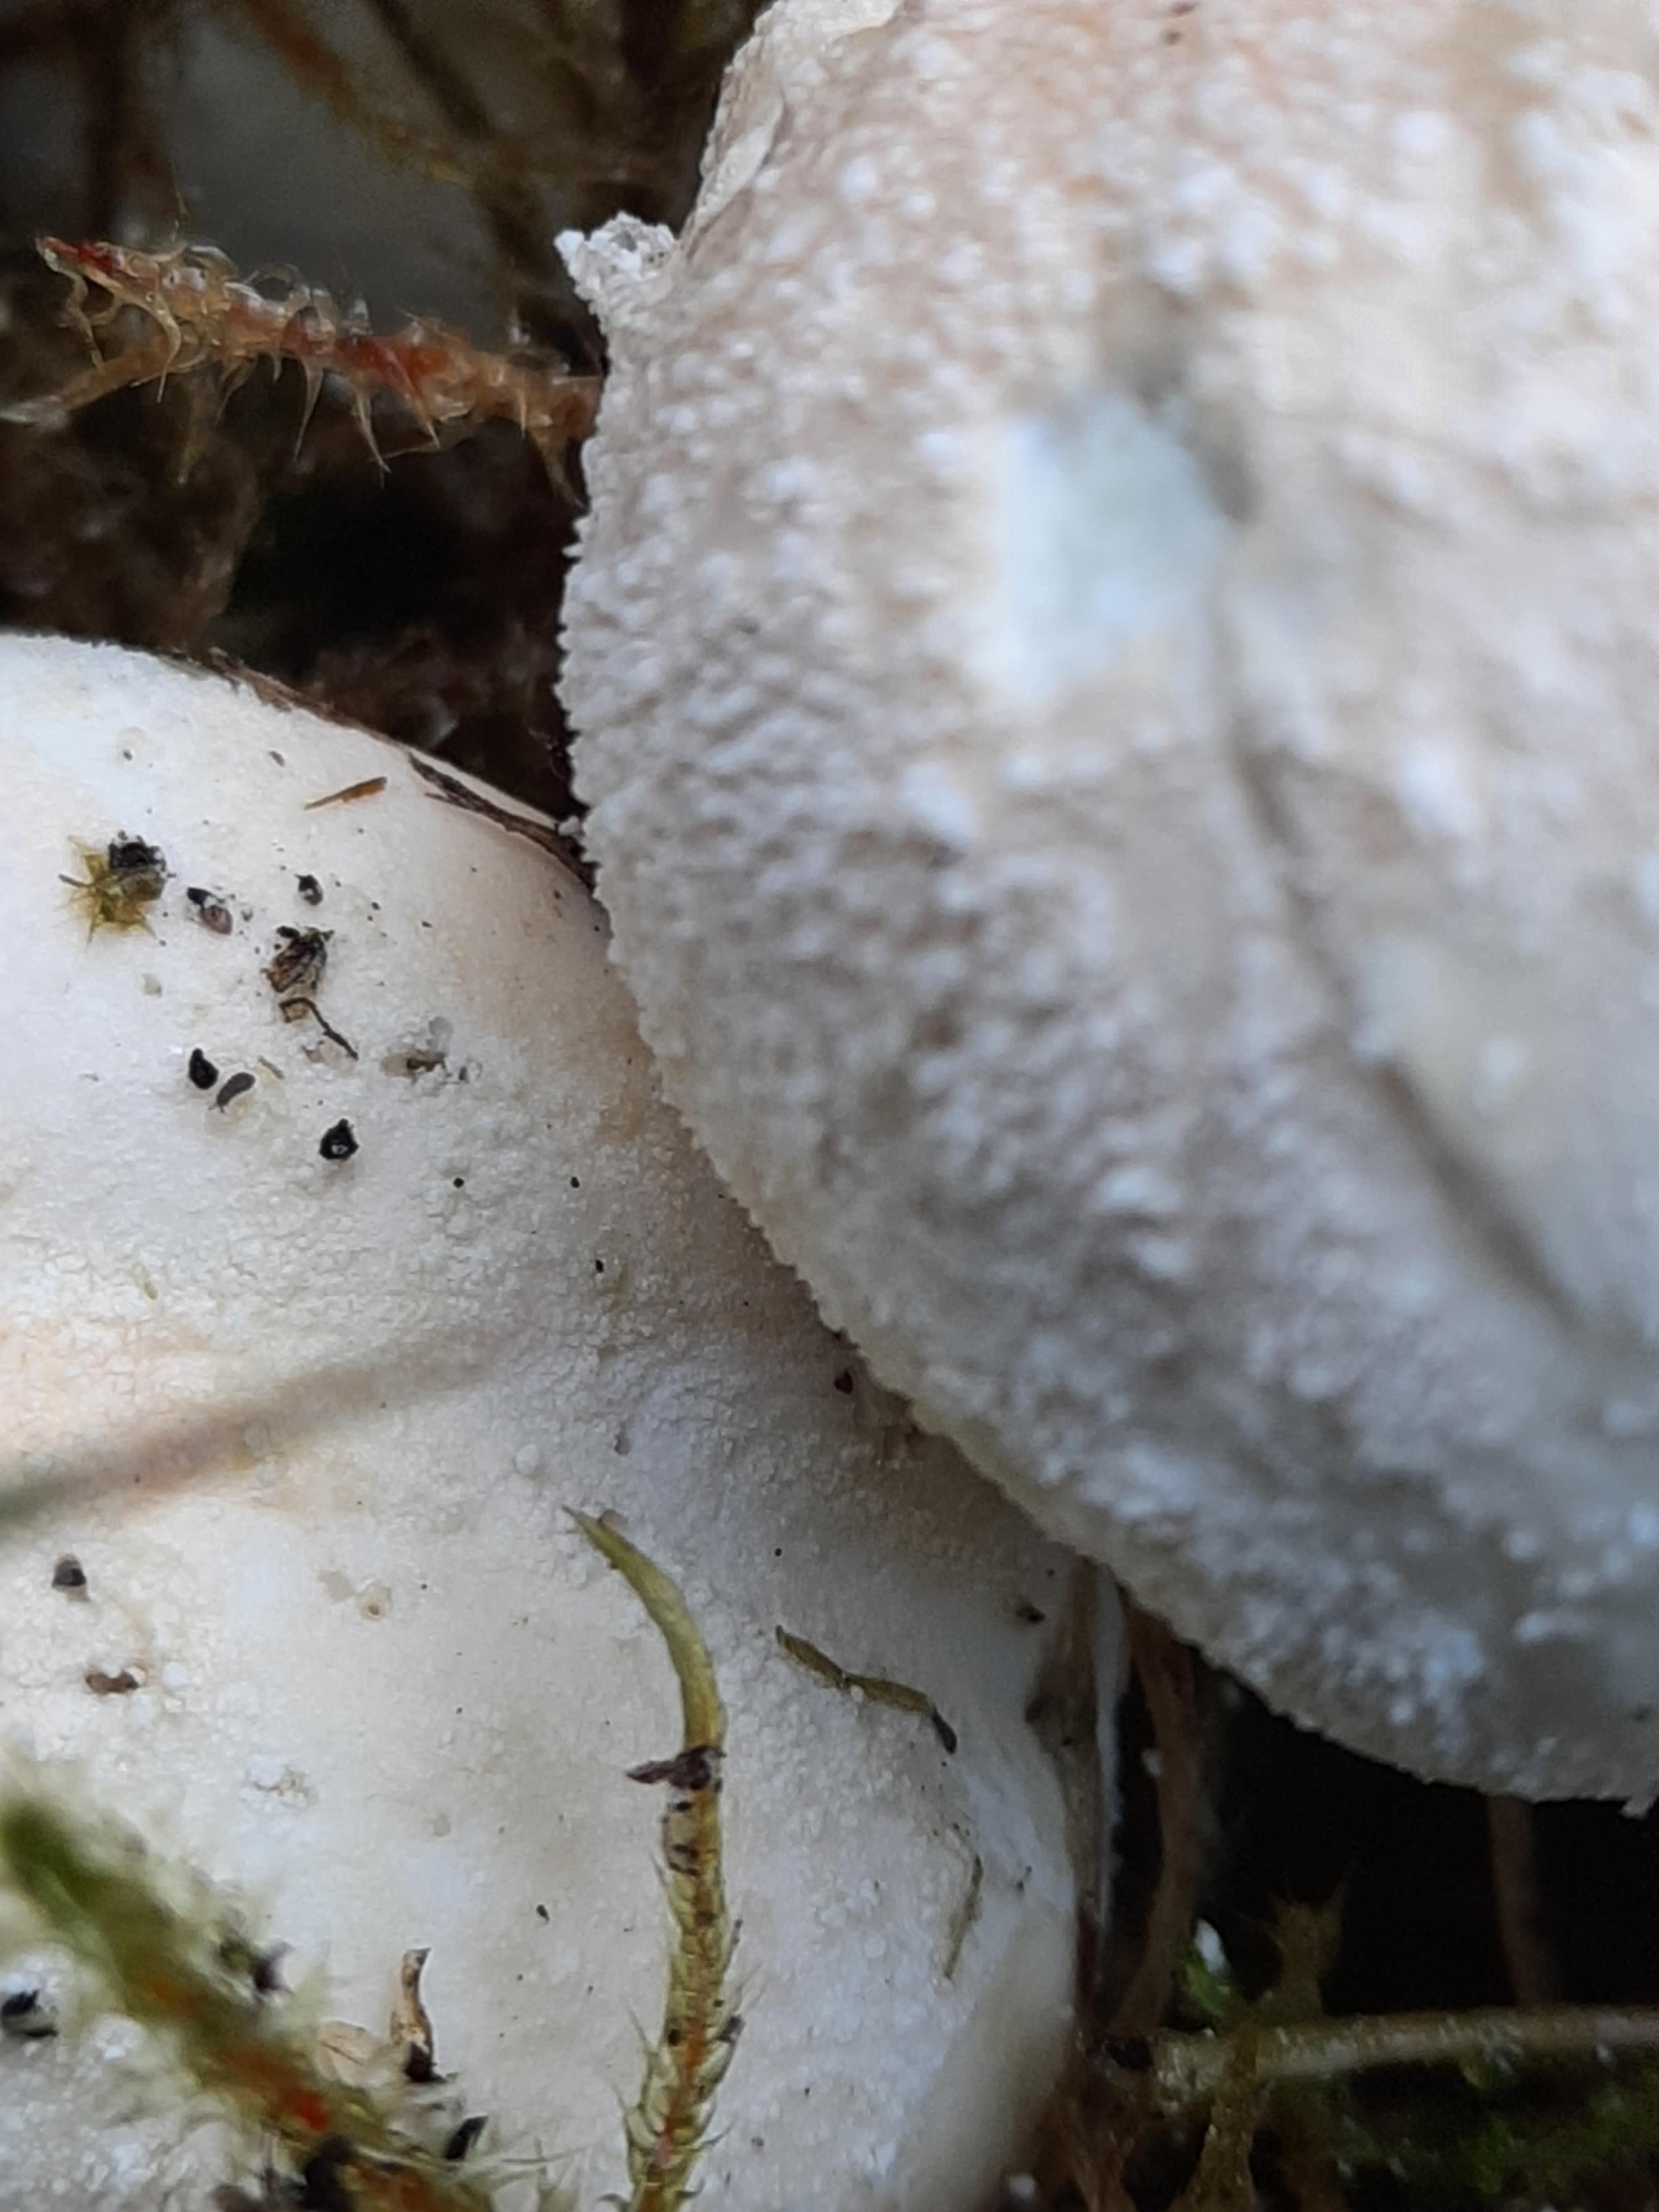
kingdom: Fungi
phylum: Basidiomycota
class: Agaricomycetes
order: Agaricales
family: Agaricaceae
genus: Lycoperdon
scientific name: Lycoperdon
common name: støvbold
